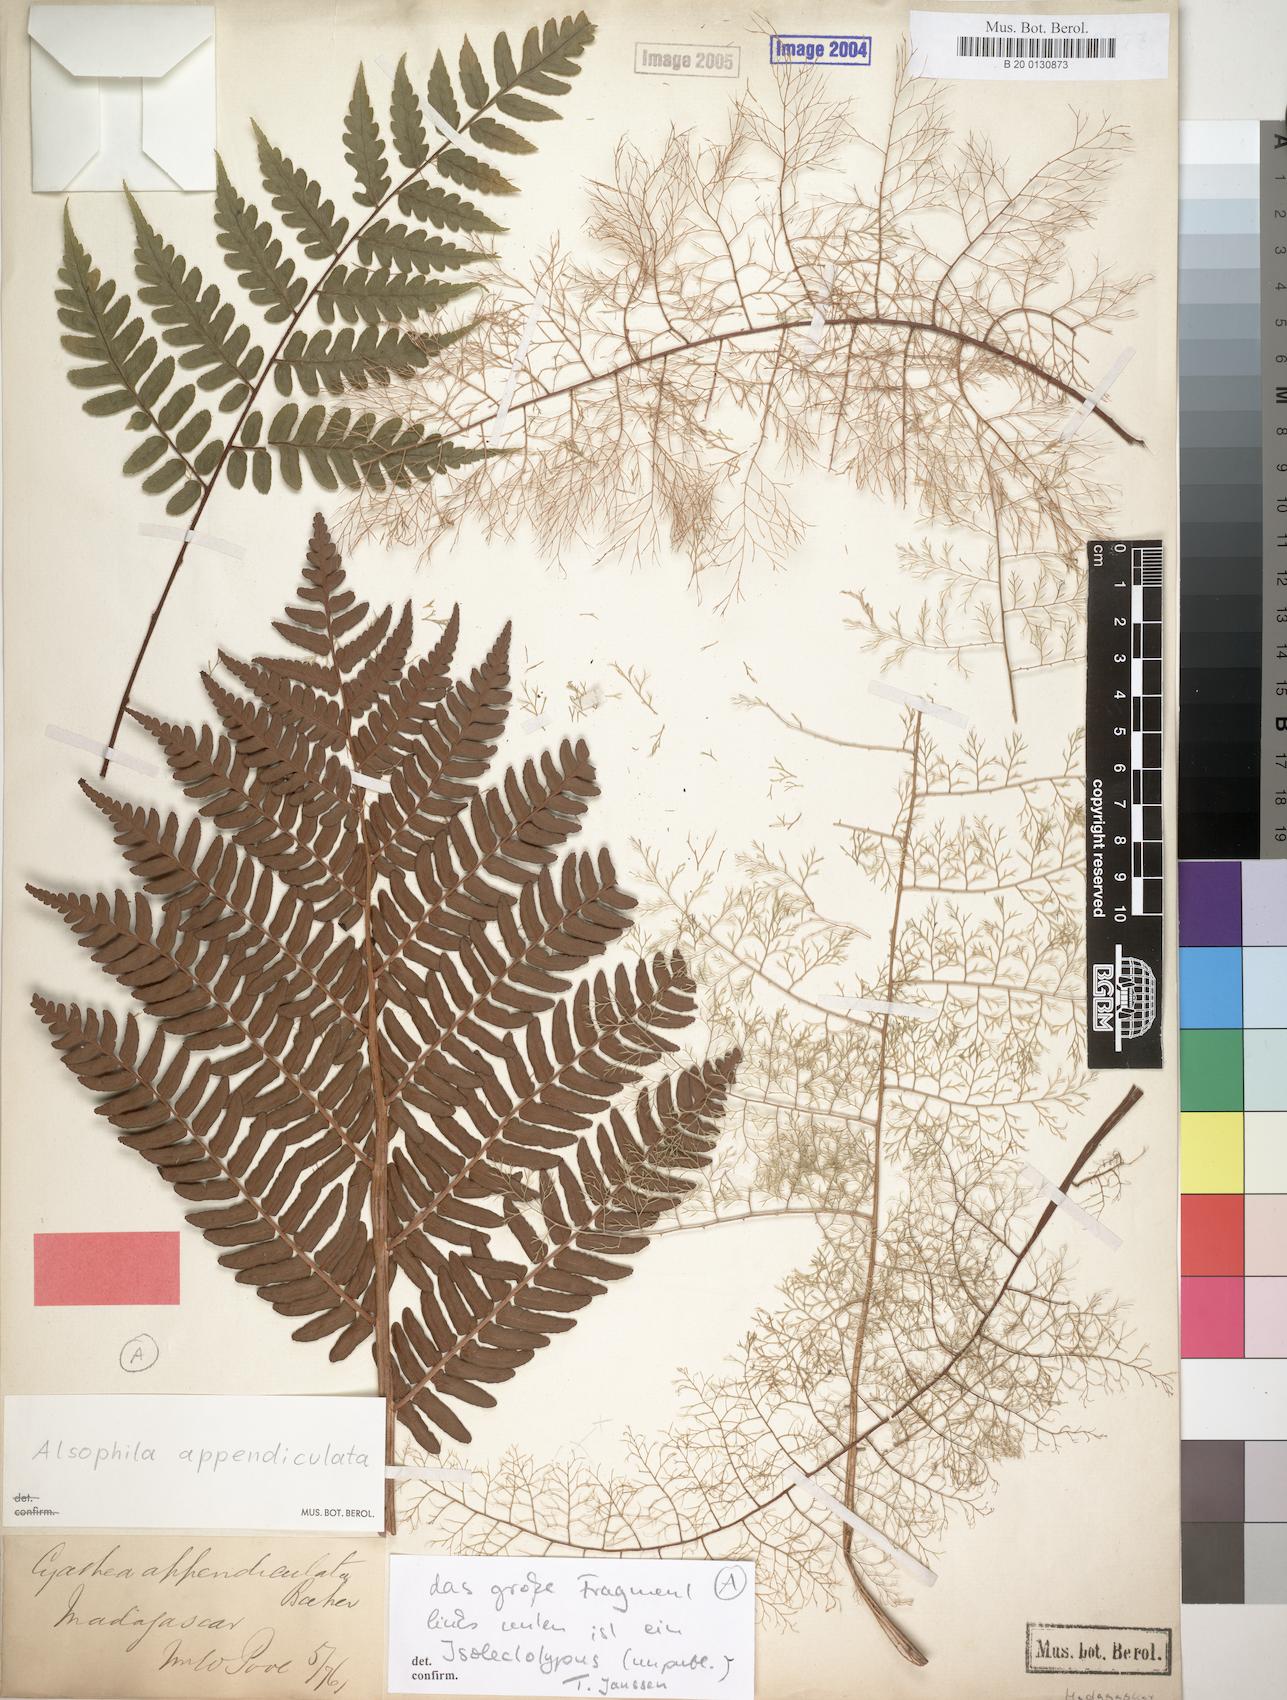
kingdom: Plantae
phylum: Tracheophyta
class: Polypodiopsida
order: Cyatheales
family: Cyatheaceae
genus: Alsophila
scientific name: Alsophila appendiculata
